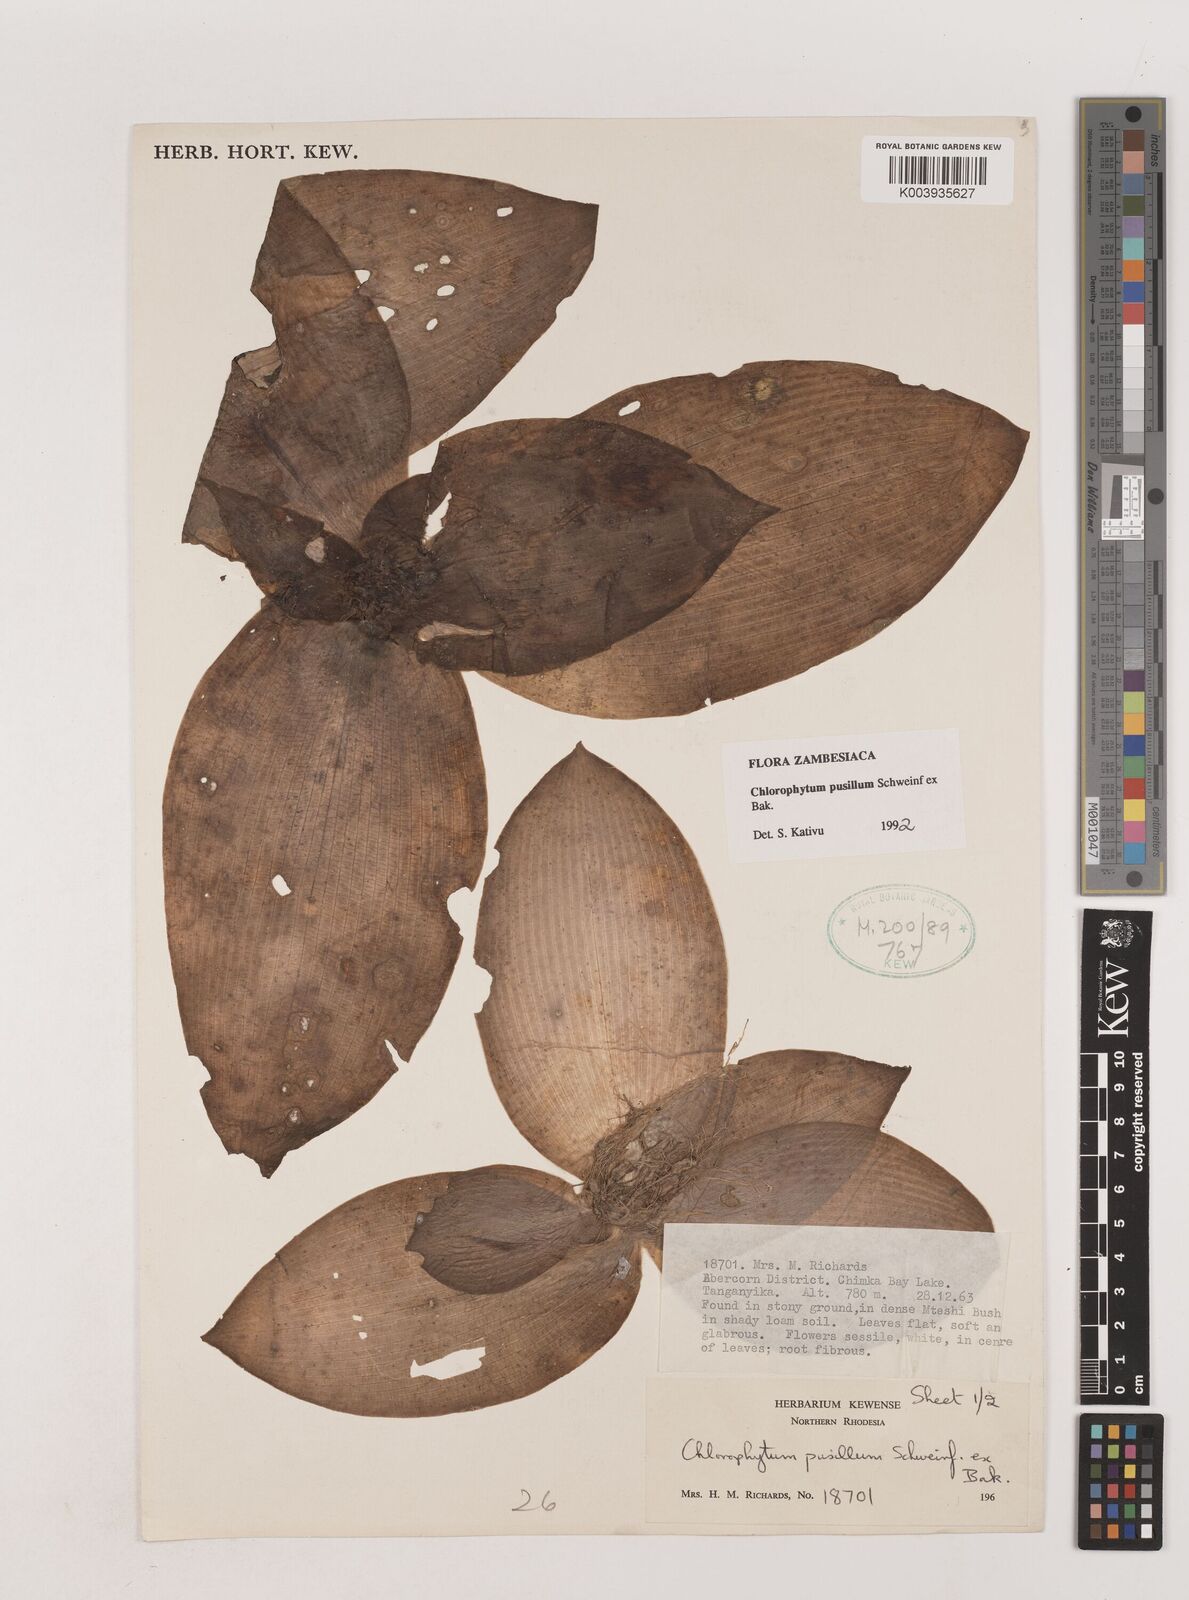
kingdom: Plantae
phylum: Tracheophyta
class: Liliopsida
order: Asparagales
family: Asparagaceae
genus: Chlorophytum
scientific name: Chlorophytum pusillum
